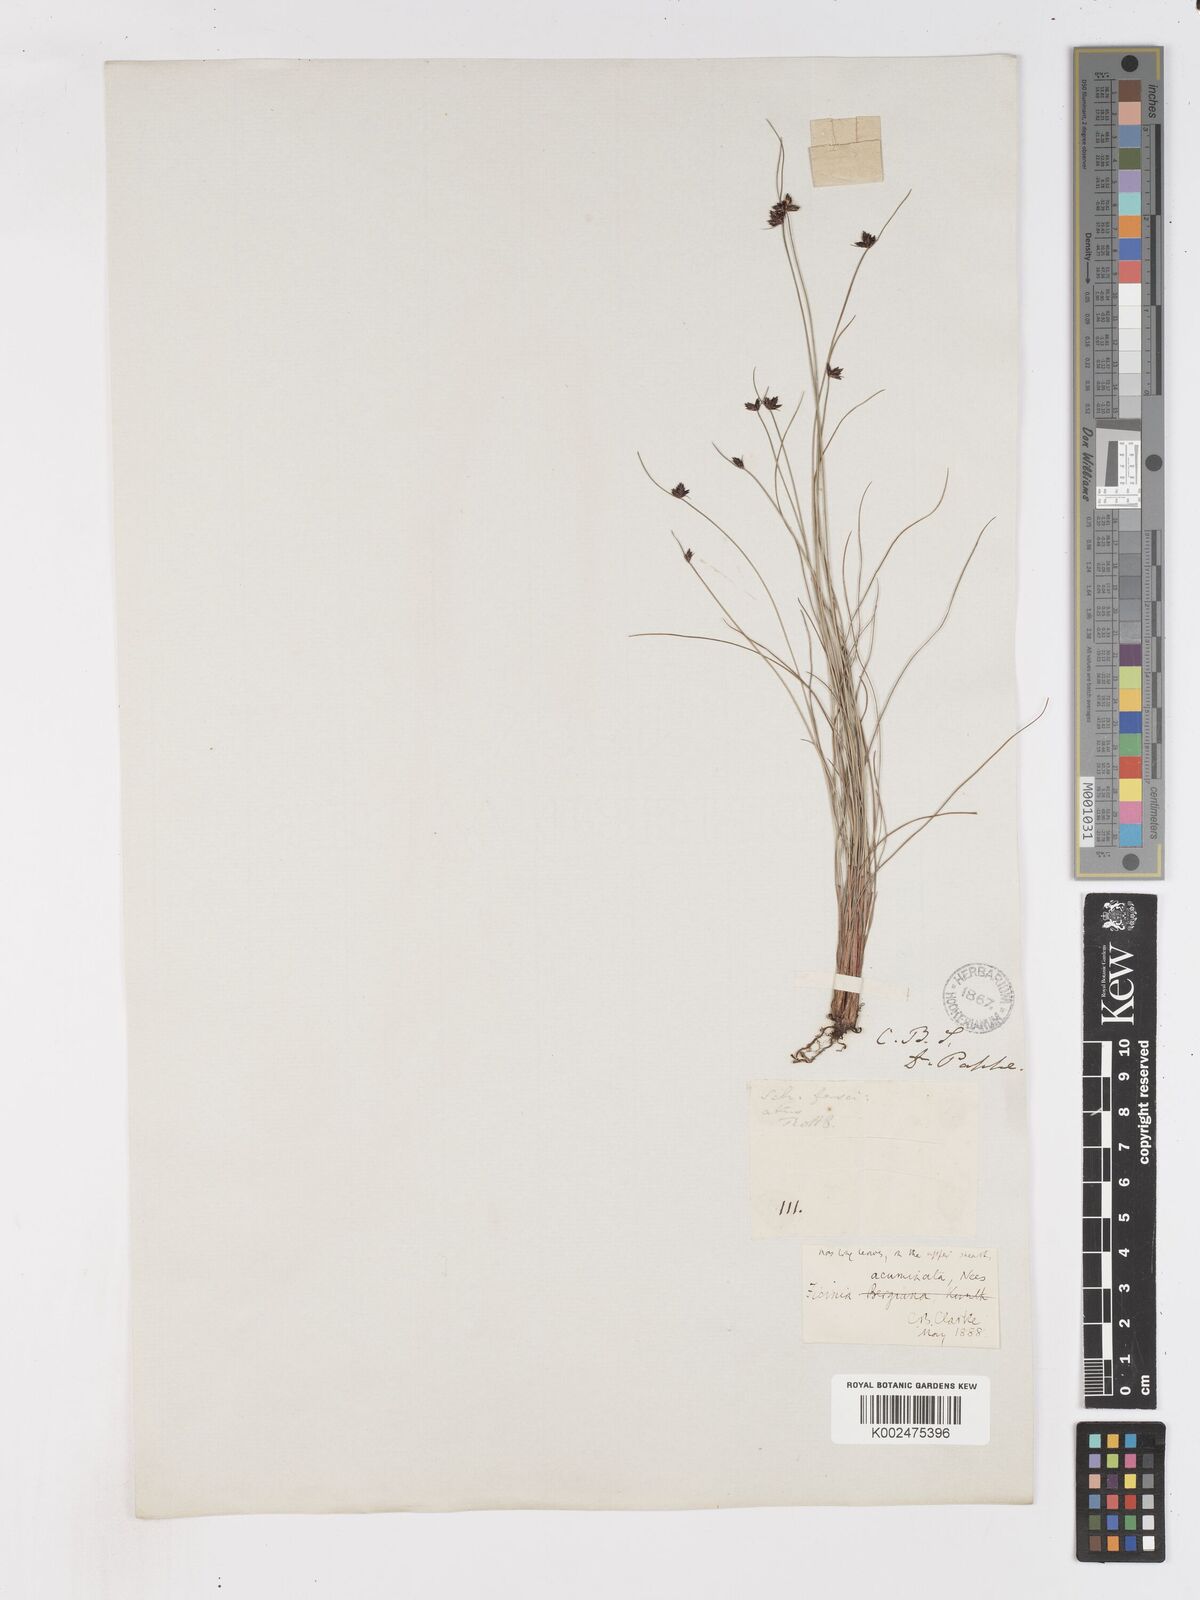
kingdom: Plantae
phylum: Tracheophyta
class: Liliopsida
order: Poales
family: Cyperaceae
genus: Ficinia
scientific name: Ficinia acuminata
